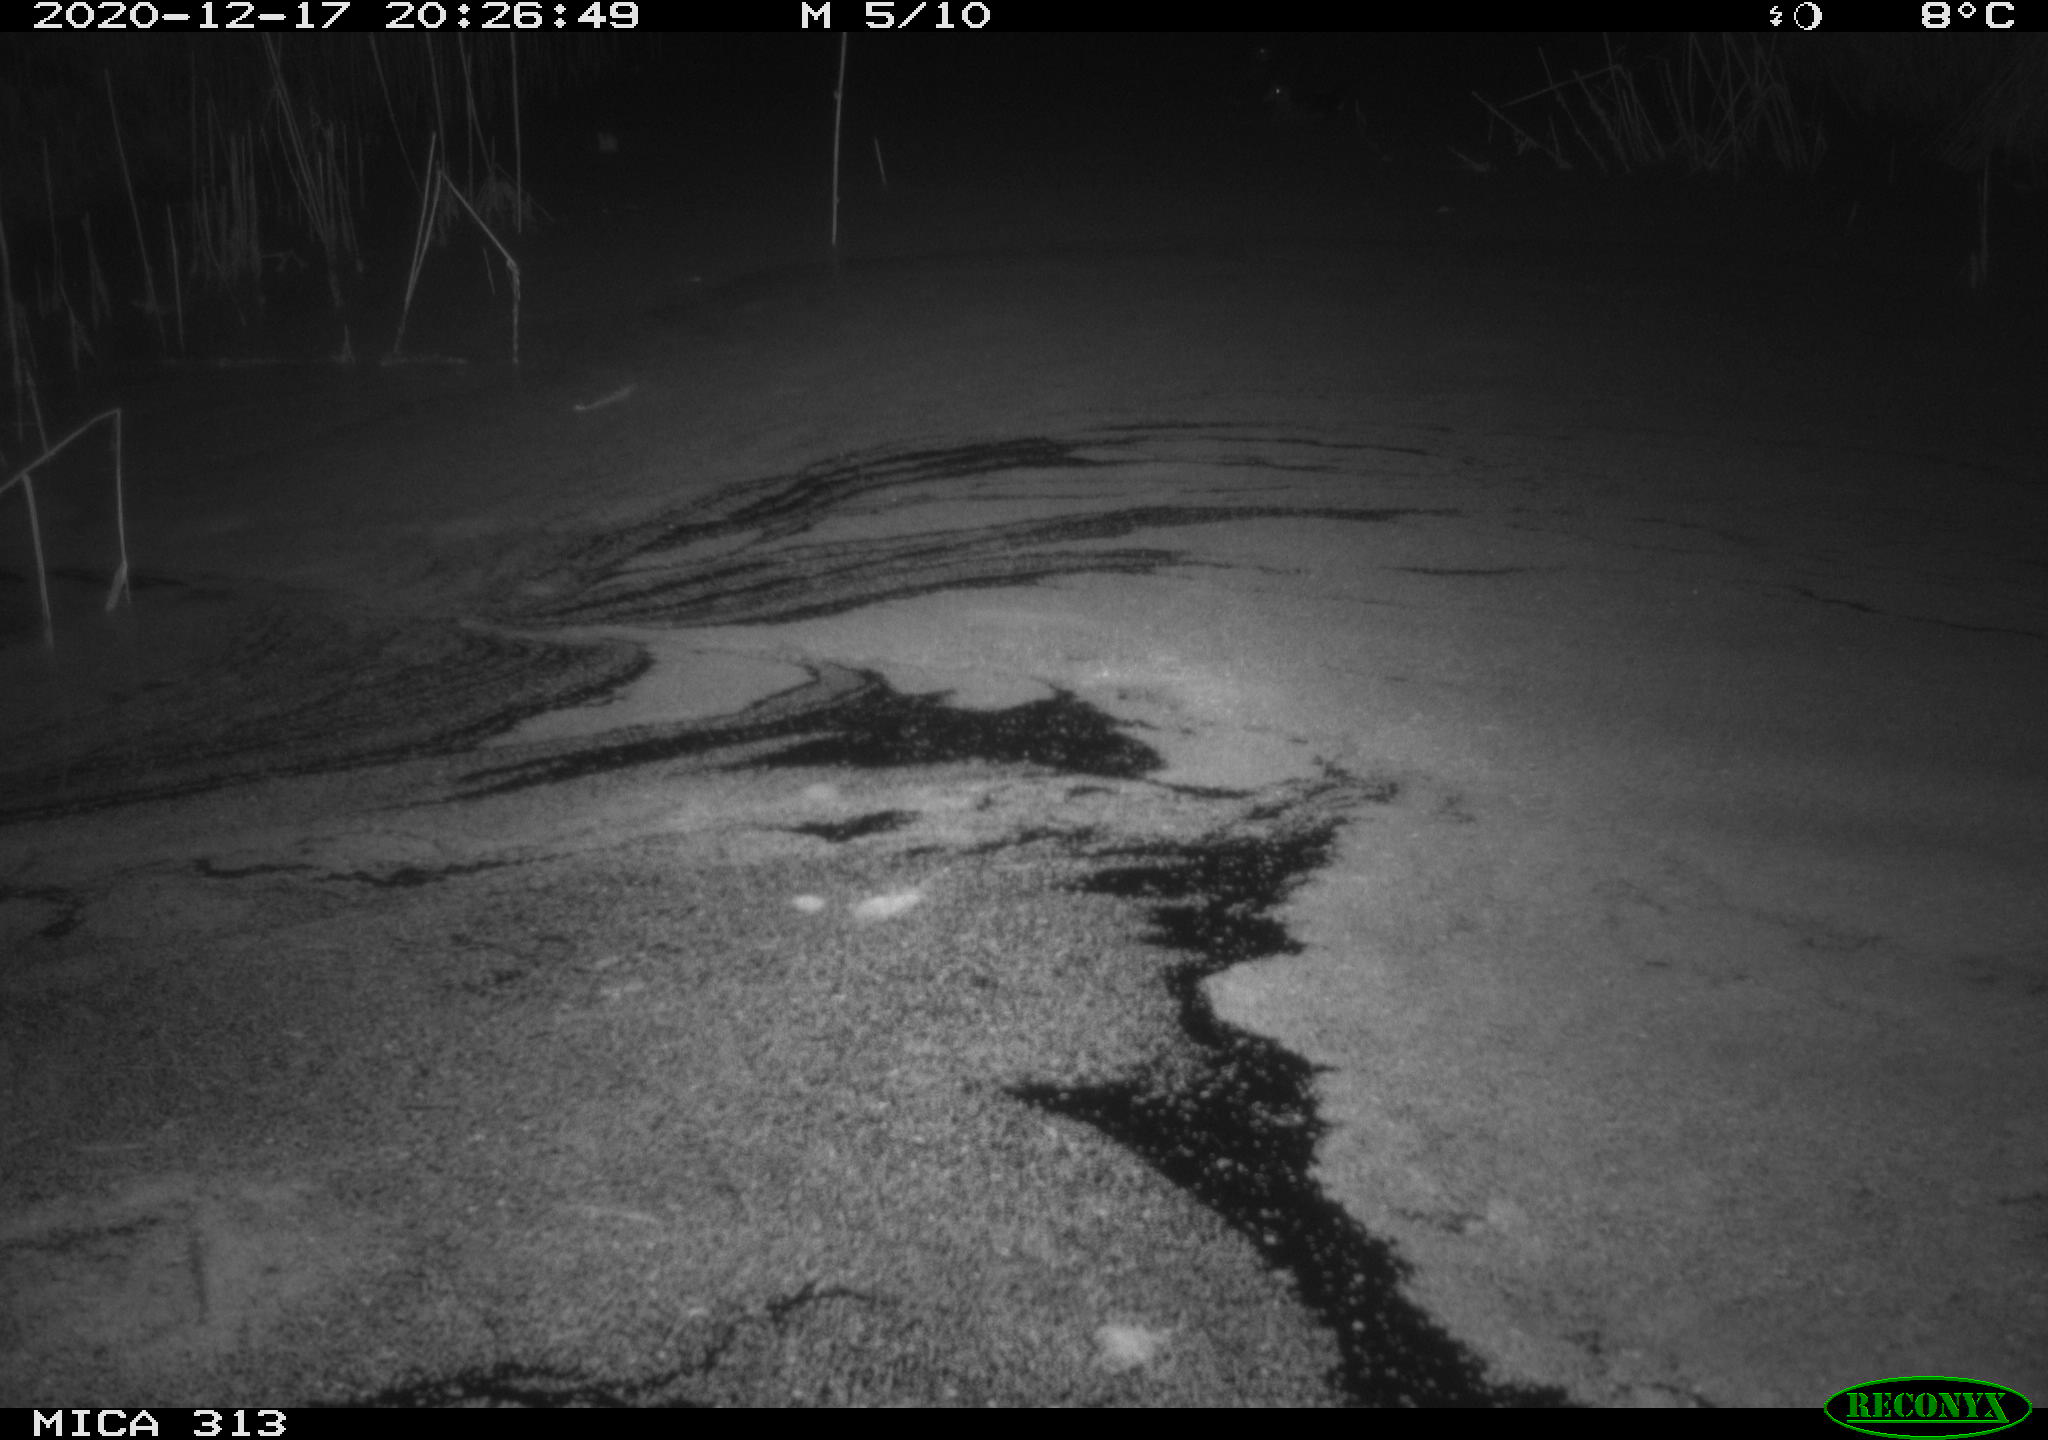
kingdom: Animalia
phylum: Chordata
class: Mammalia
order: Rodentia
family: Muridae
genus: Rattus
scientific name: Rattus norvegicus
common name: Brown rat
